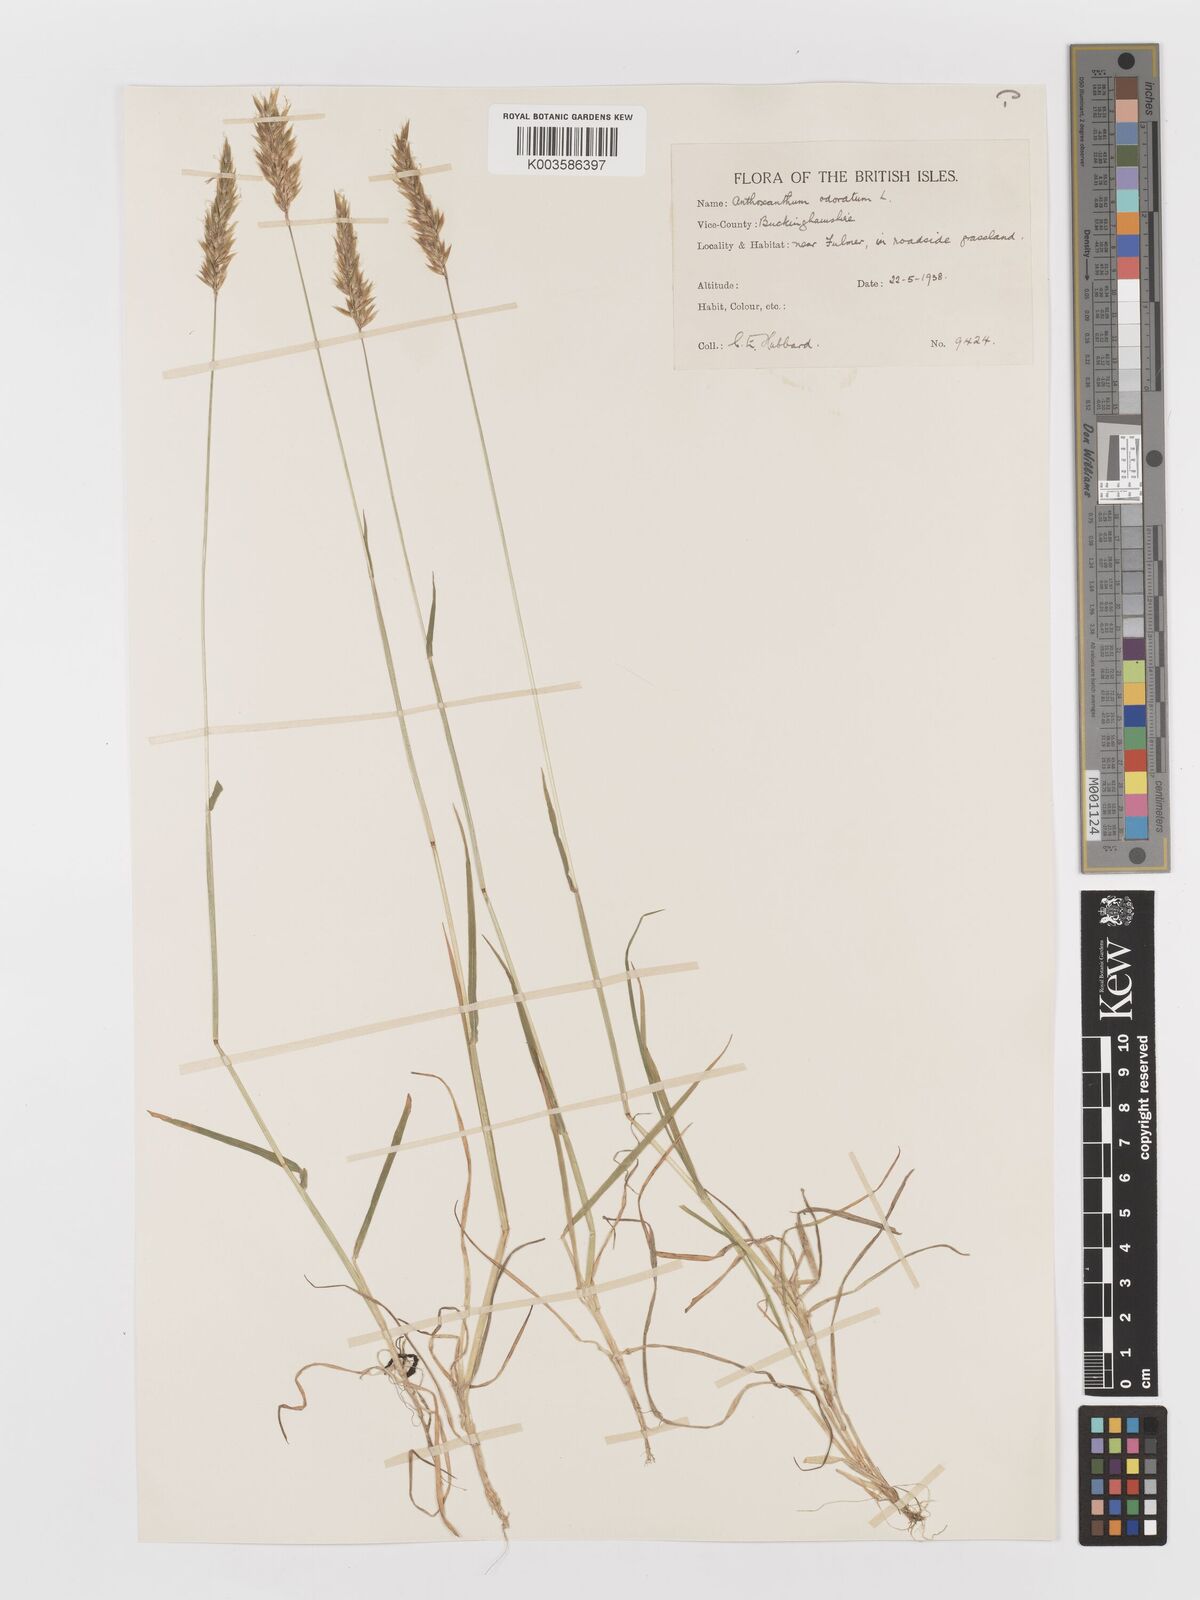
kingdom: Plantae
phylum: Tracheophyta
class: Liliopsida
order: Poales
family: Poaceae
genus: Anthoxanthum
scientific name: Anthoxanthum odoratum
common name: Sweet vernalgrass
